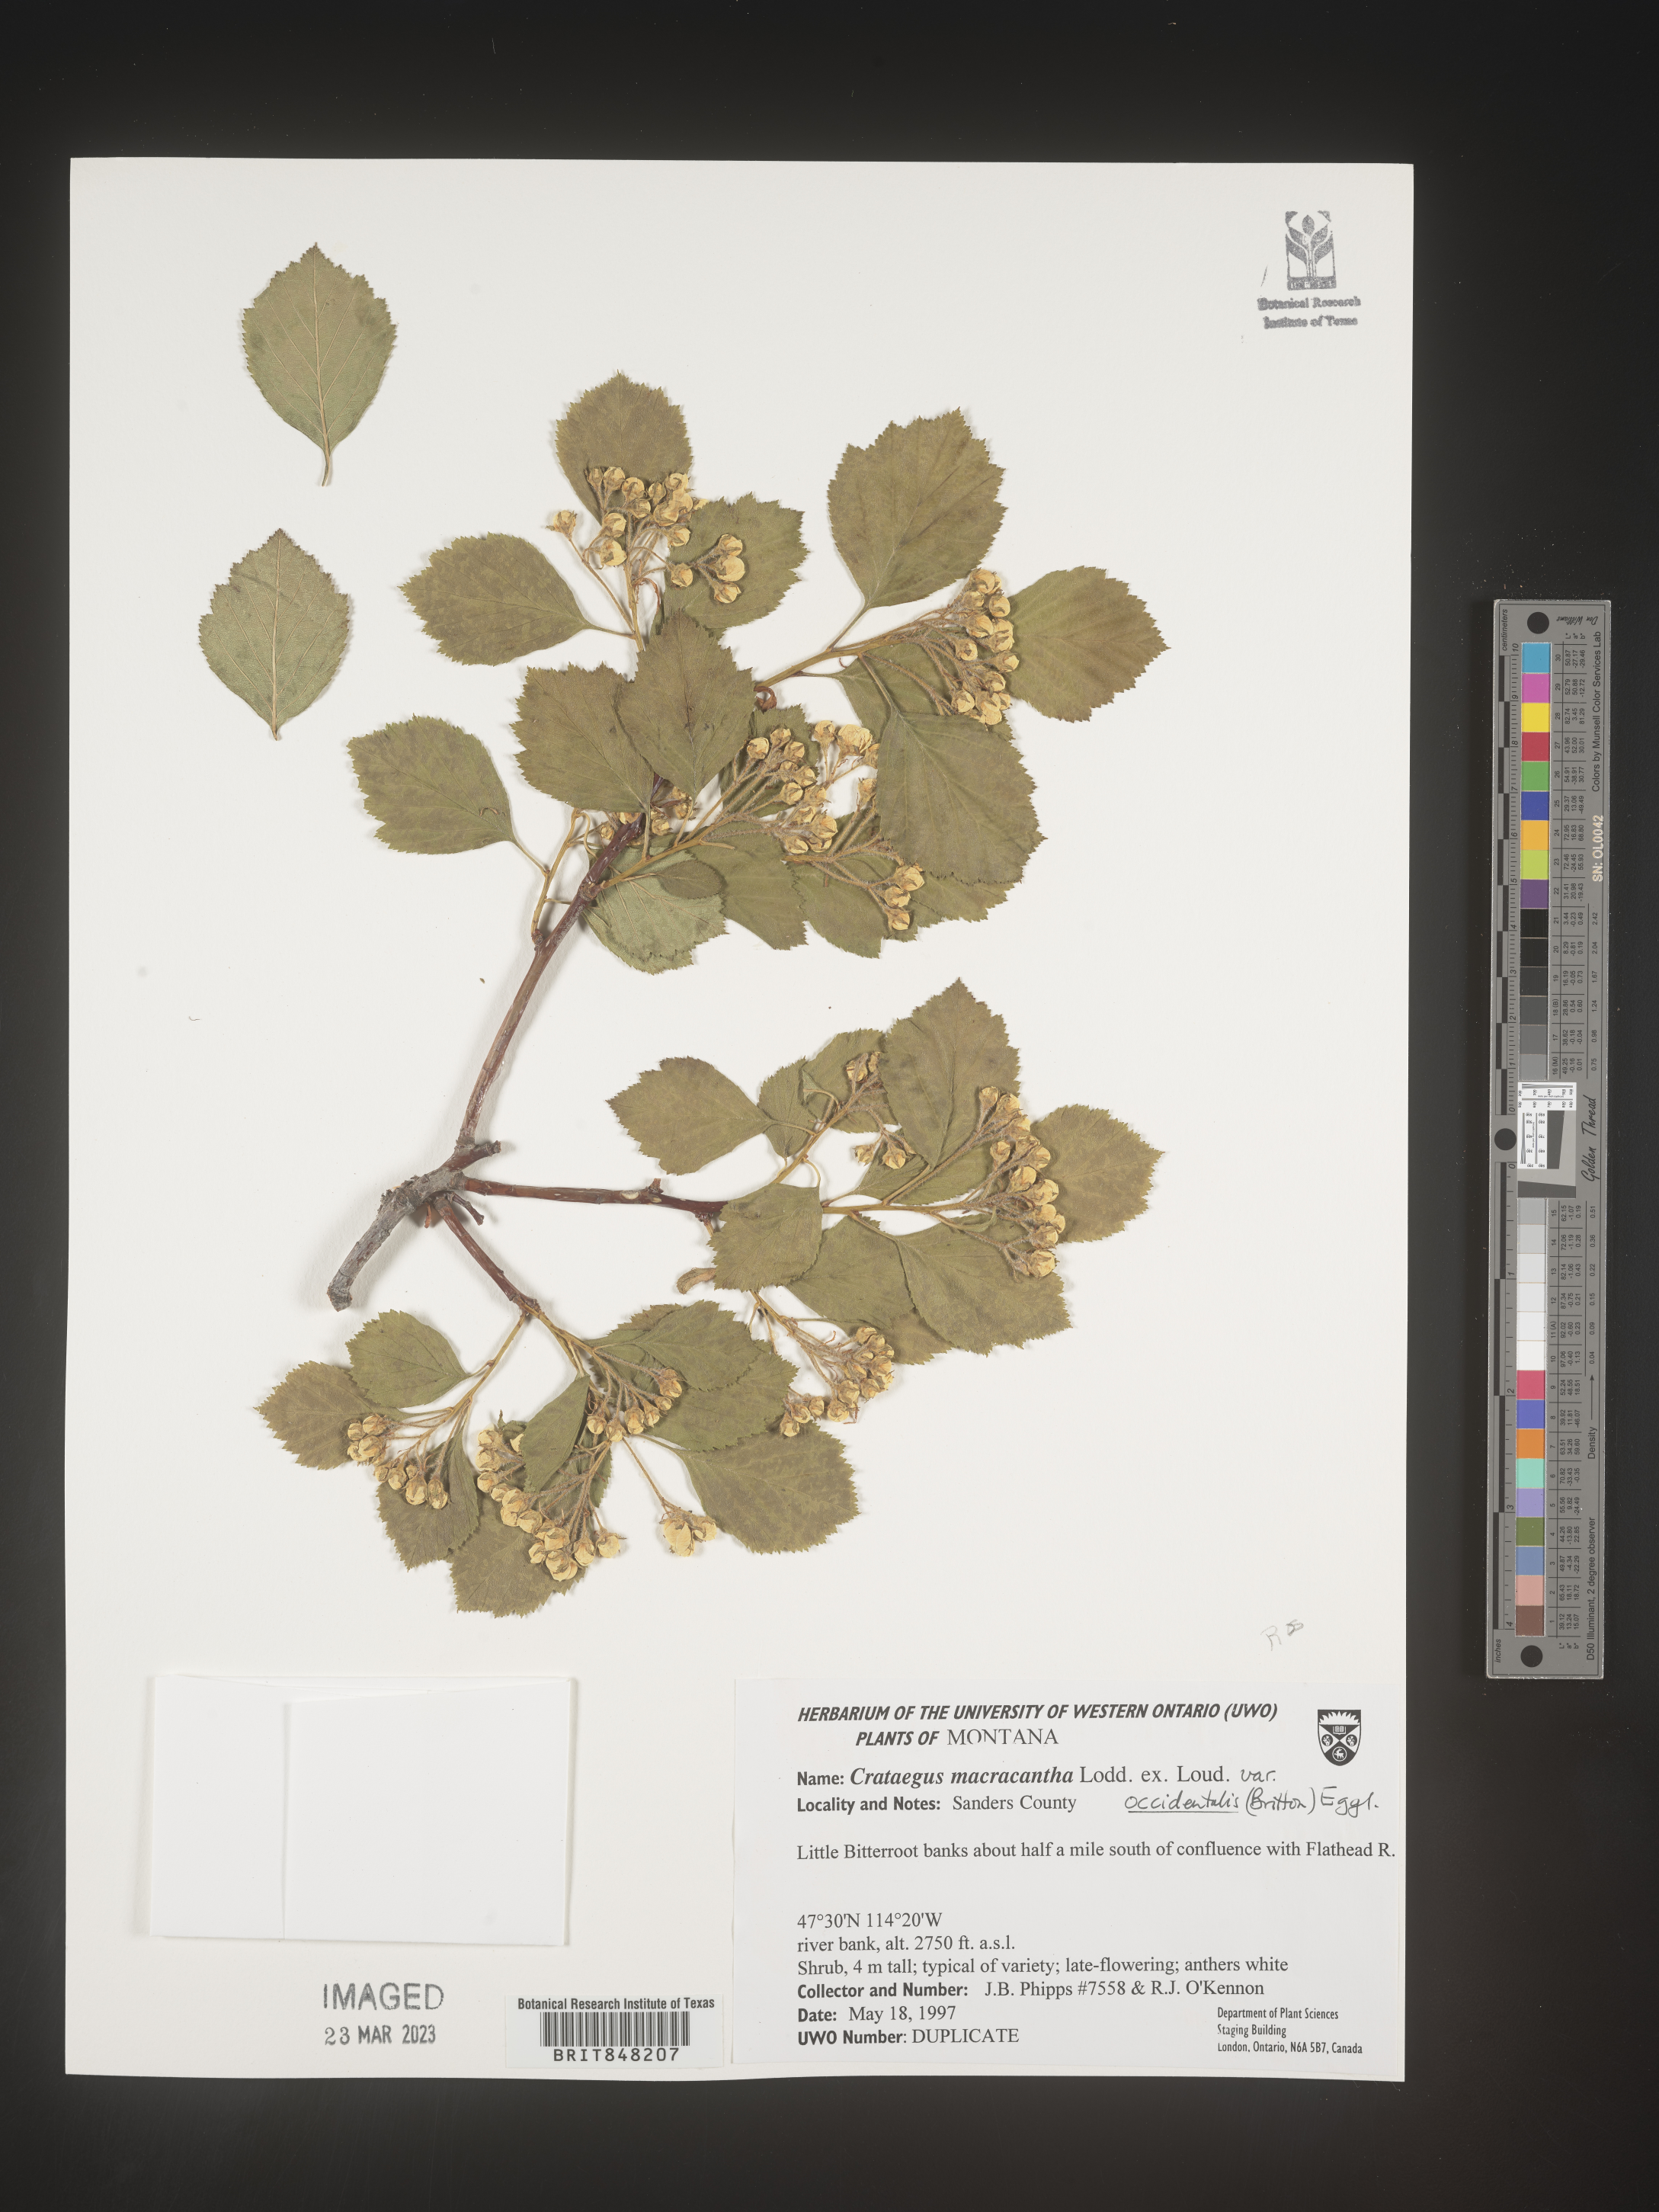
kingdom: Plantae
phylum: Tracheophyta
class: Magnoliopsida
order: Rosales
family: Rosaceae
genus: Crataegus
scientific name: Crataegus macracantha
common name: Large-thorn hawthorn
